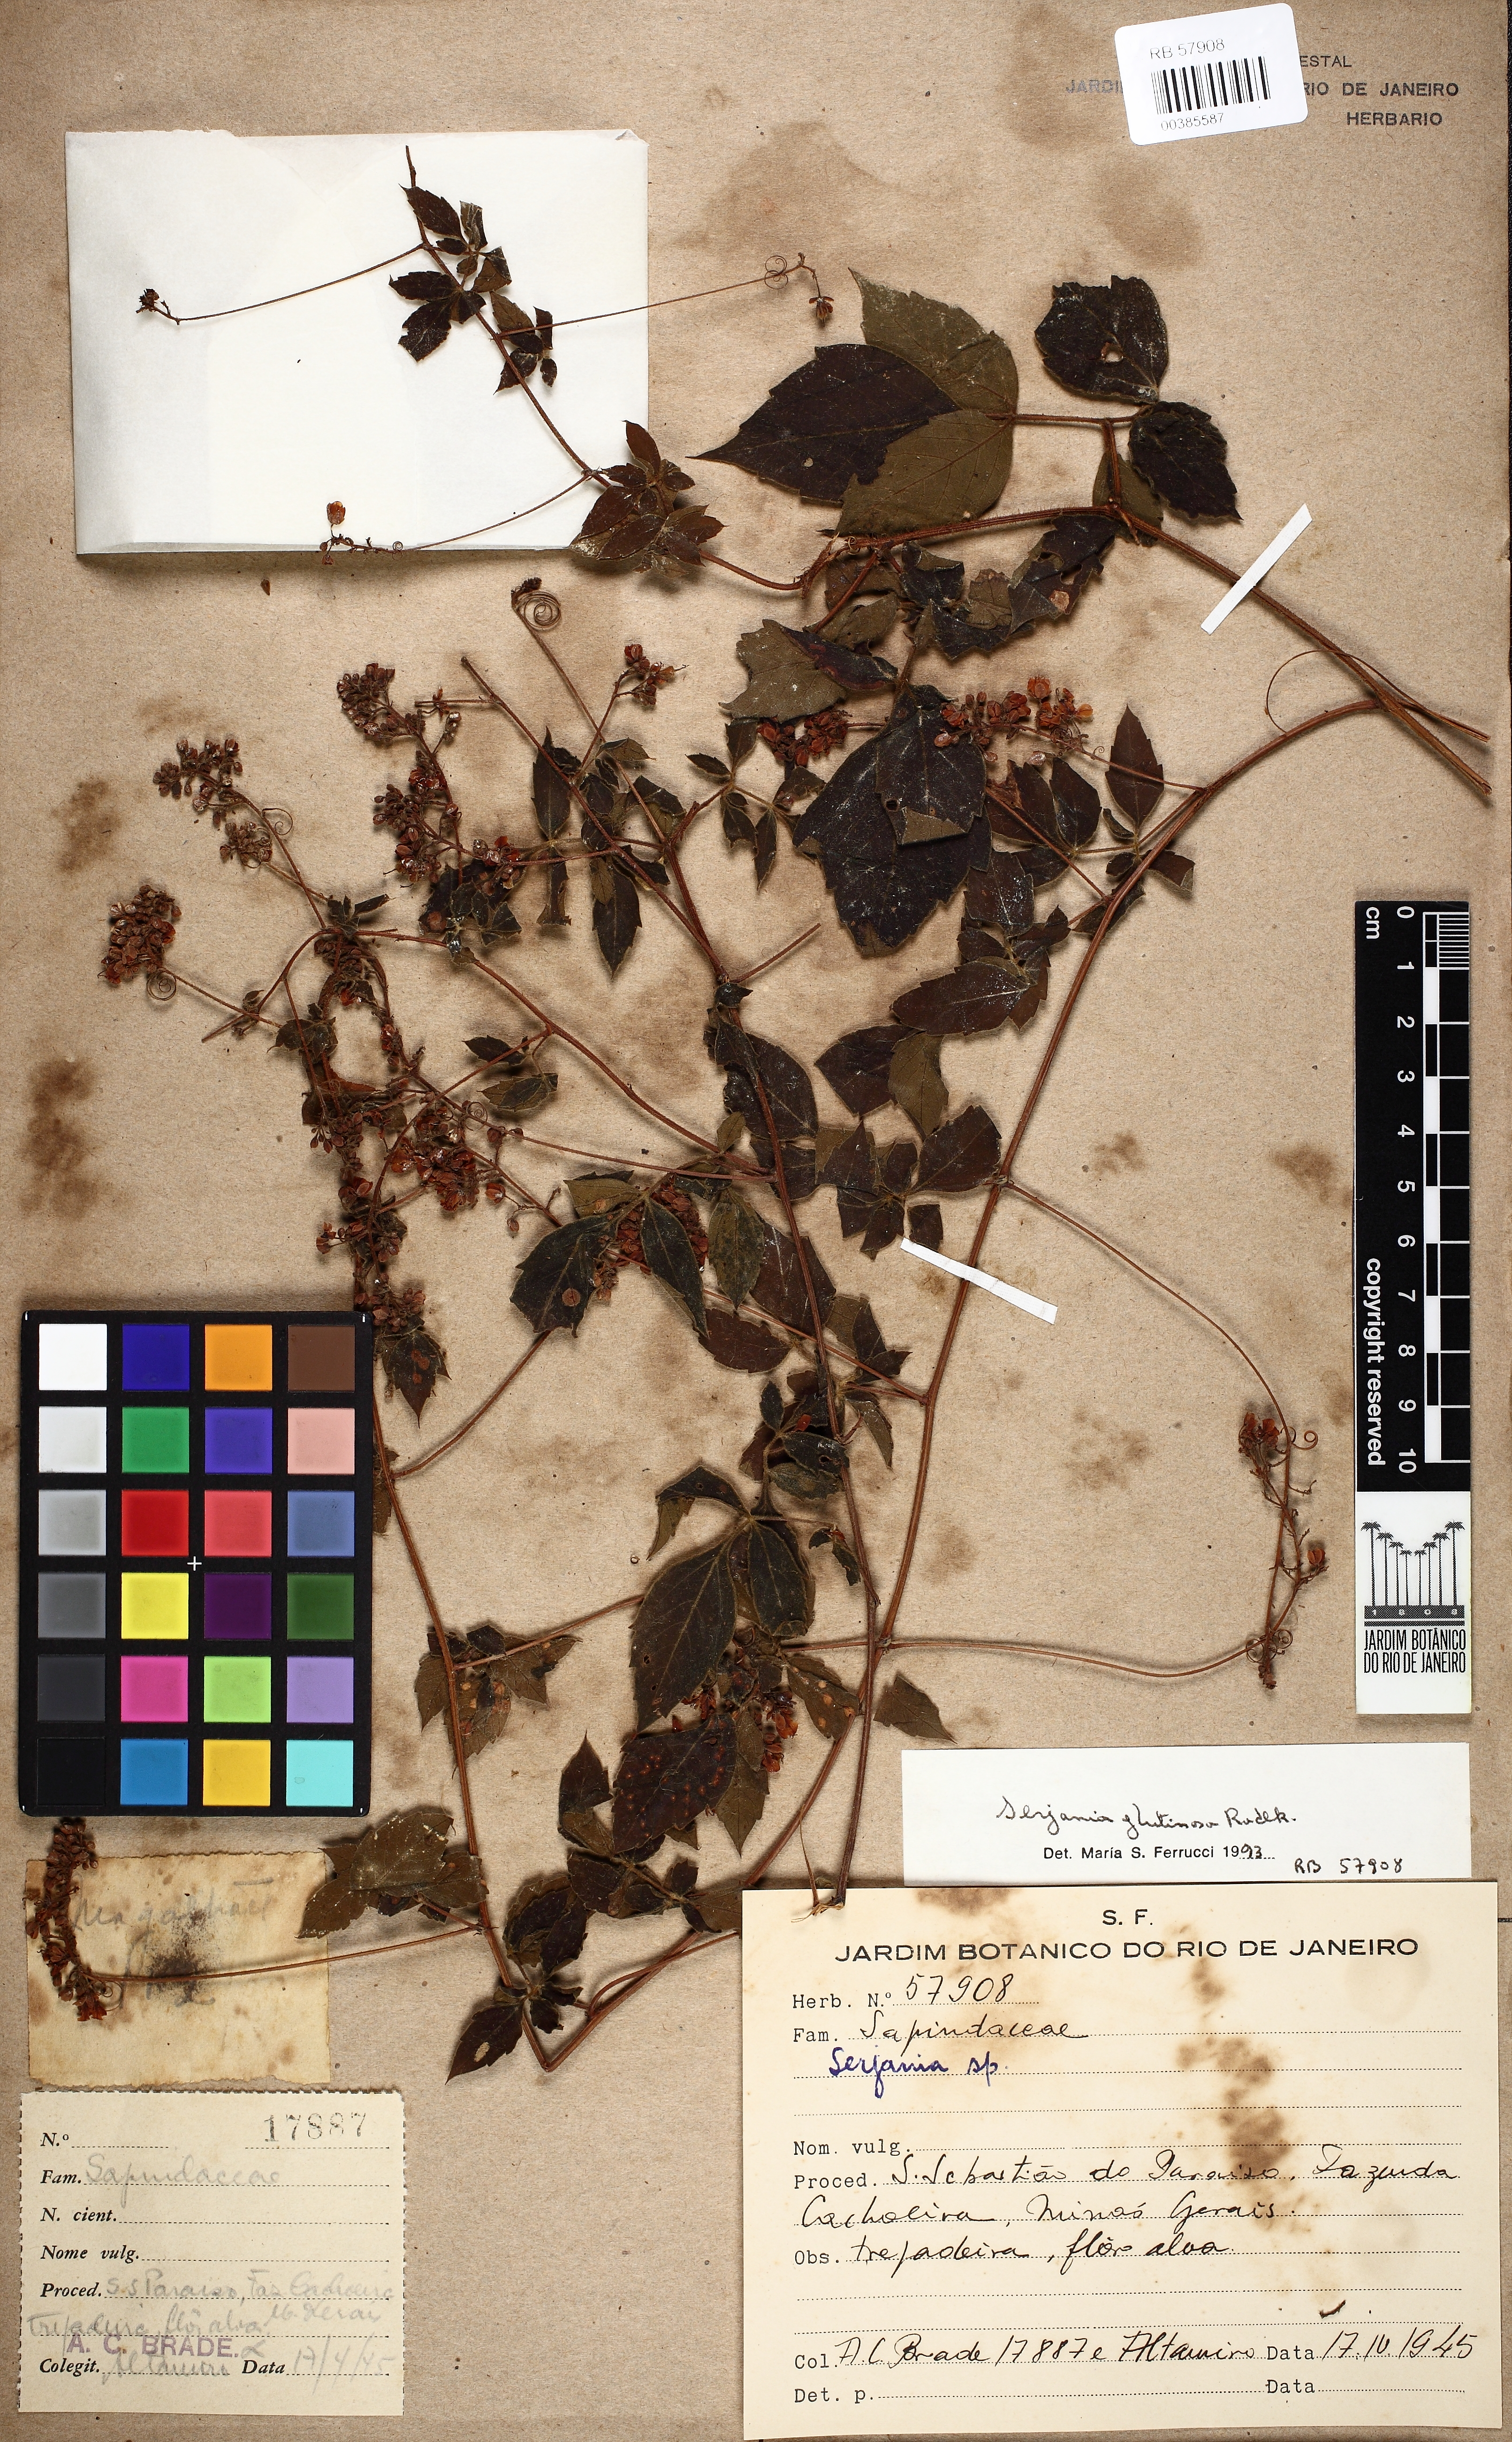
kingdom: Plantae
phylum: Tracheophyta
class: Magnoliopsida
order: Sapindales
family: Sapindaceae
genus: Serjania
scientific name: Serjania glutinosa
